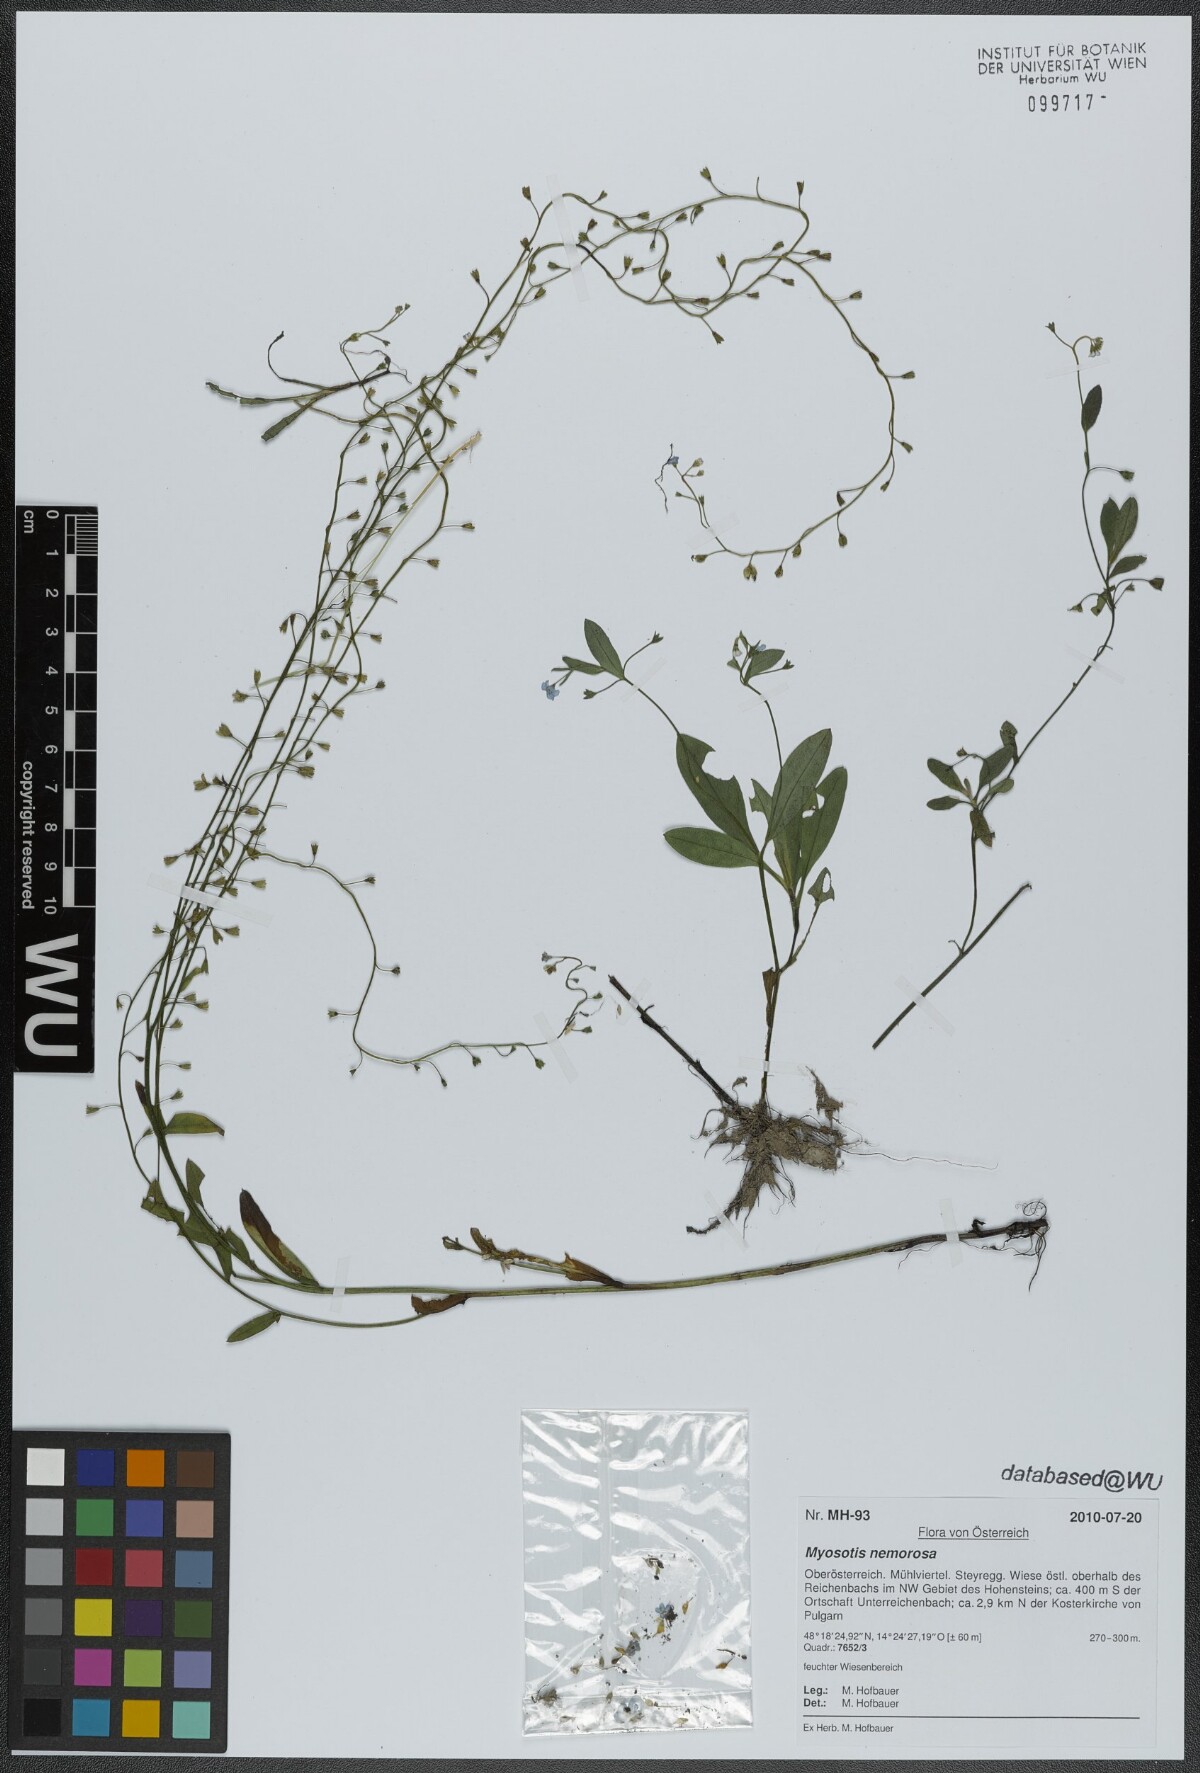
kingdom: Plantae
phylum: Tracheophyta
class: Magnoliopsida
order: Boraginales
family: Boraginaceae
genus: Myosotis
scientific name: Myosotis nemorosa
